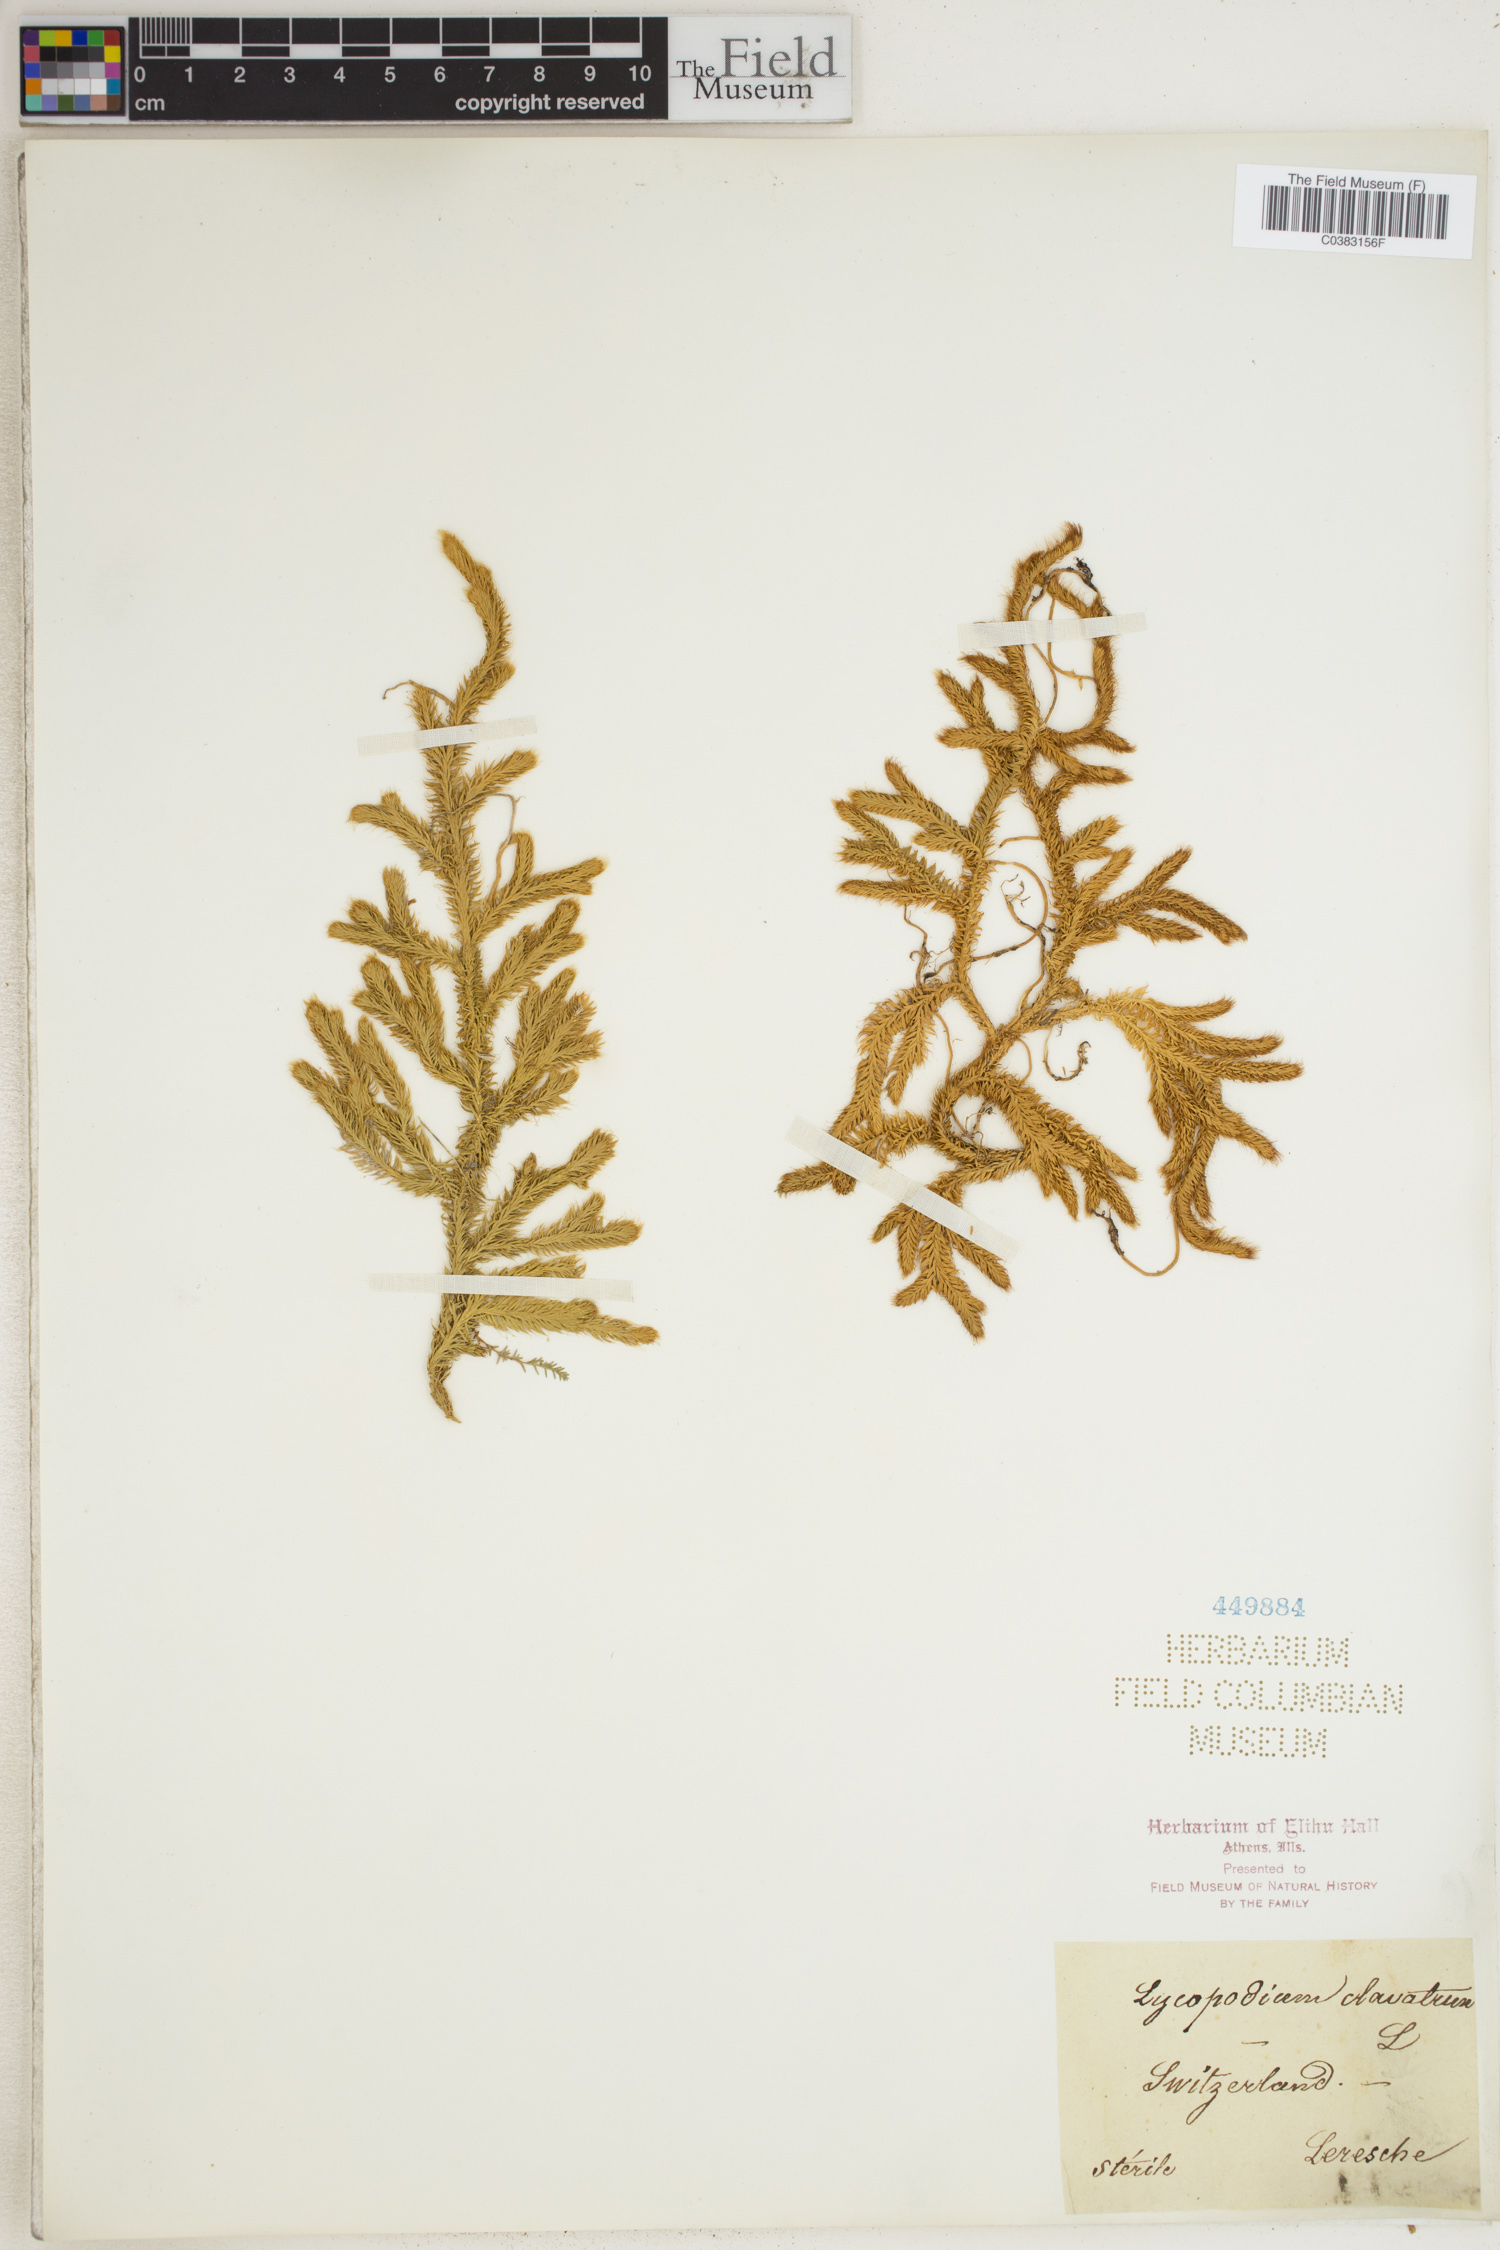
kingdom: Plantae
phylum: Tracheophyta
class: Lycopodiopsida
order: Lycopodiales
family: Lycopodiaceae
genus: Lycopodium
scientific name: Lycopodium clavatum
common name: Stag's-horn clubmoss
